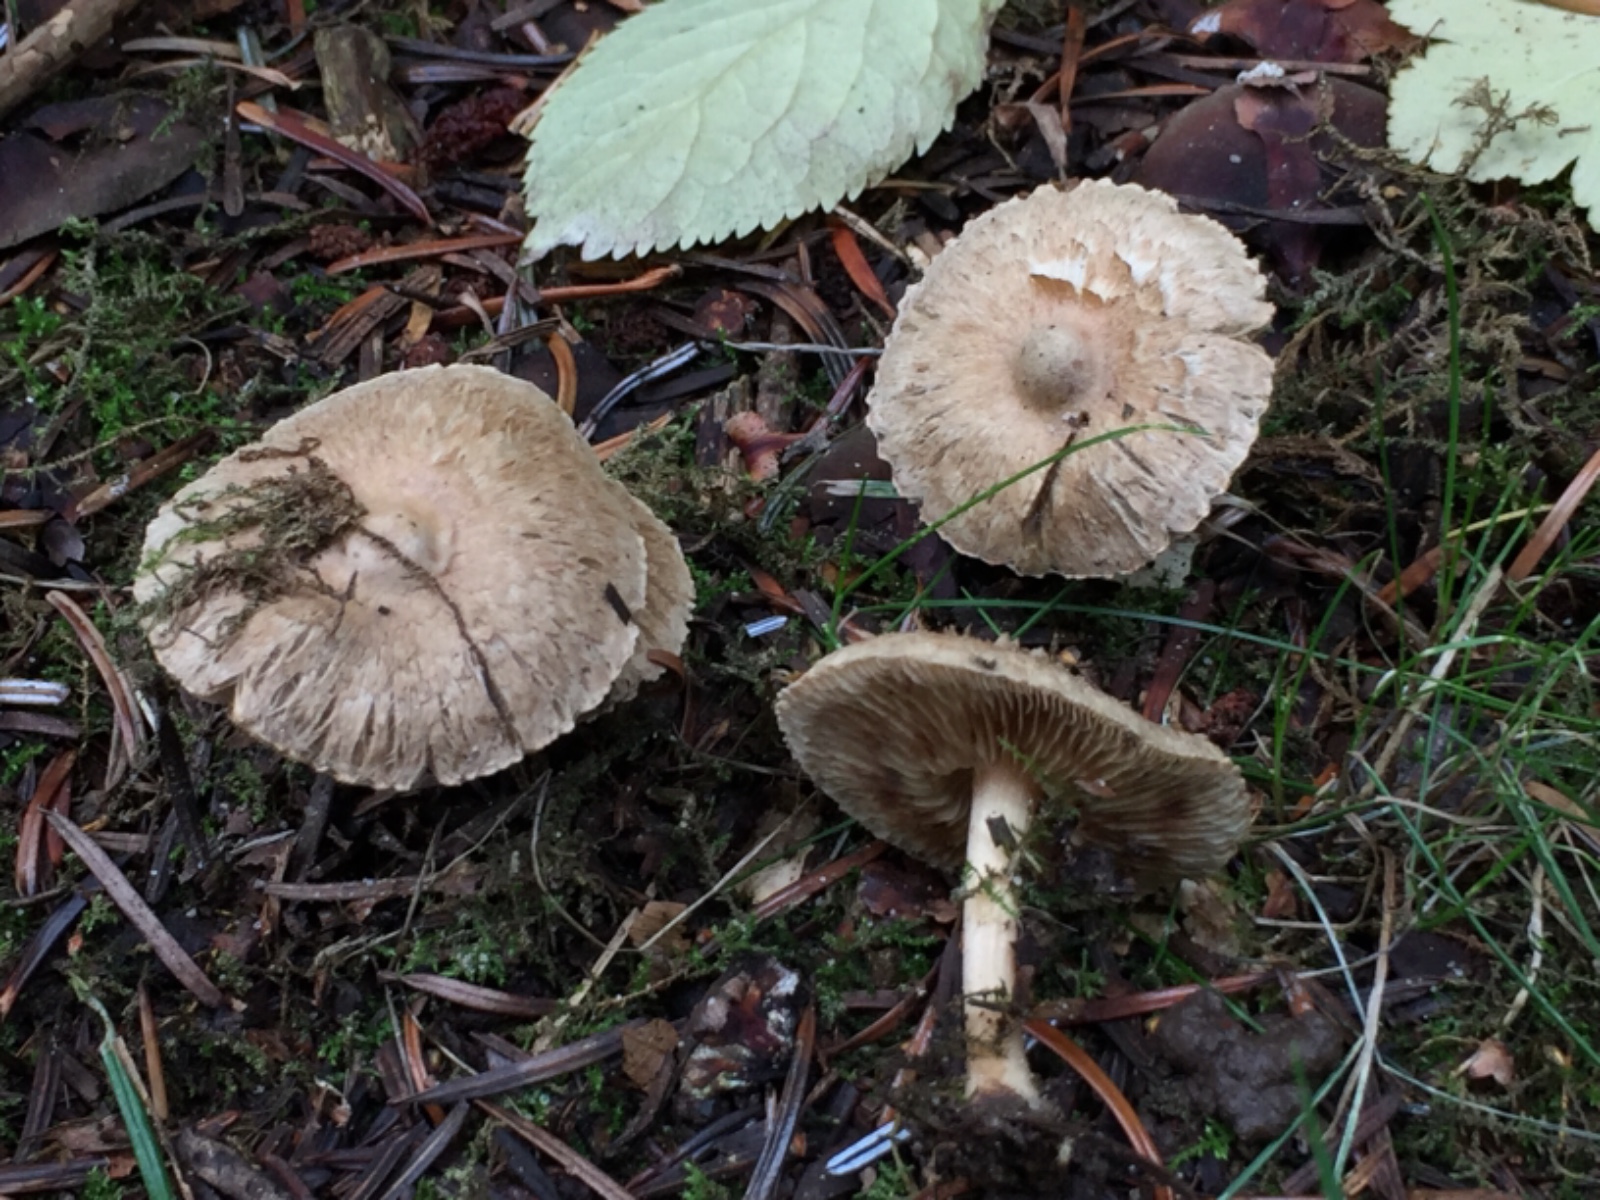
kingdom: Fungi
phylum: Basidiomycota
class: Agaricomycetes
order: Agaricales
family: Inocybaceae
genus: Inocybe
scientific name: Inocybe
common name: trævlhat
